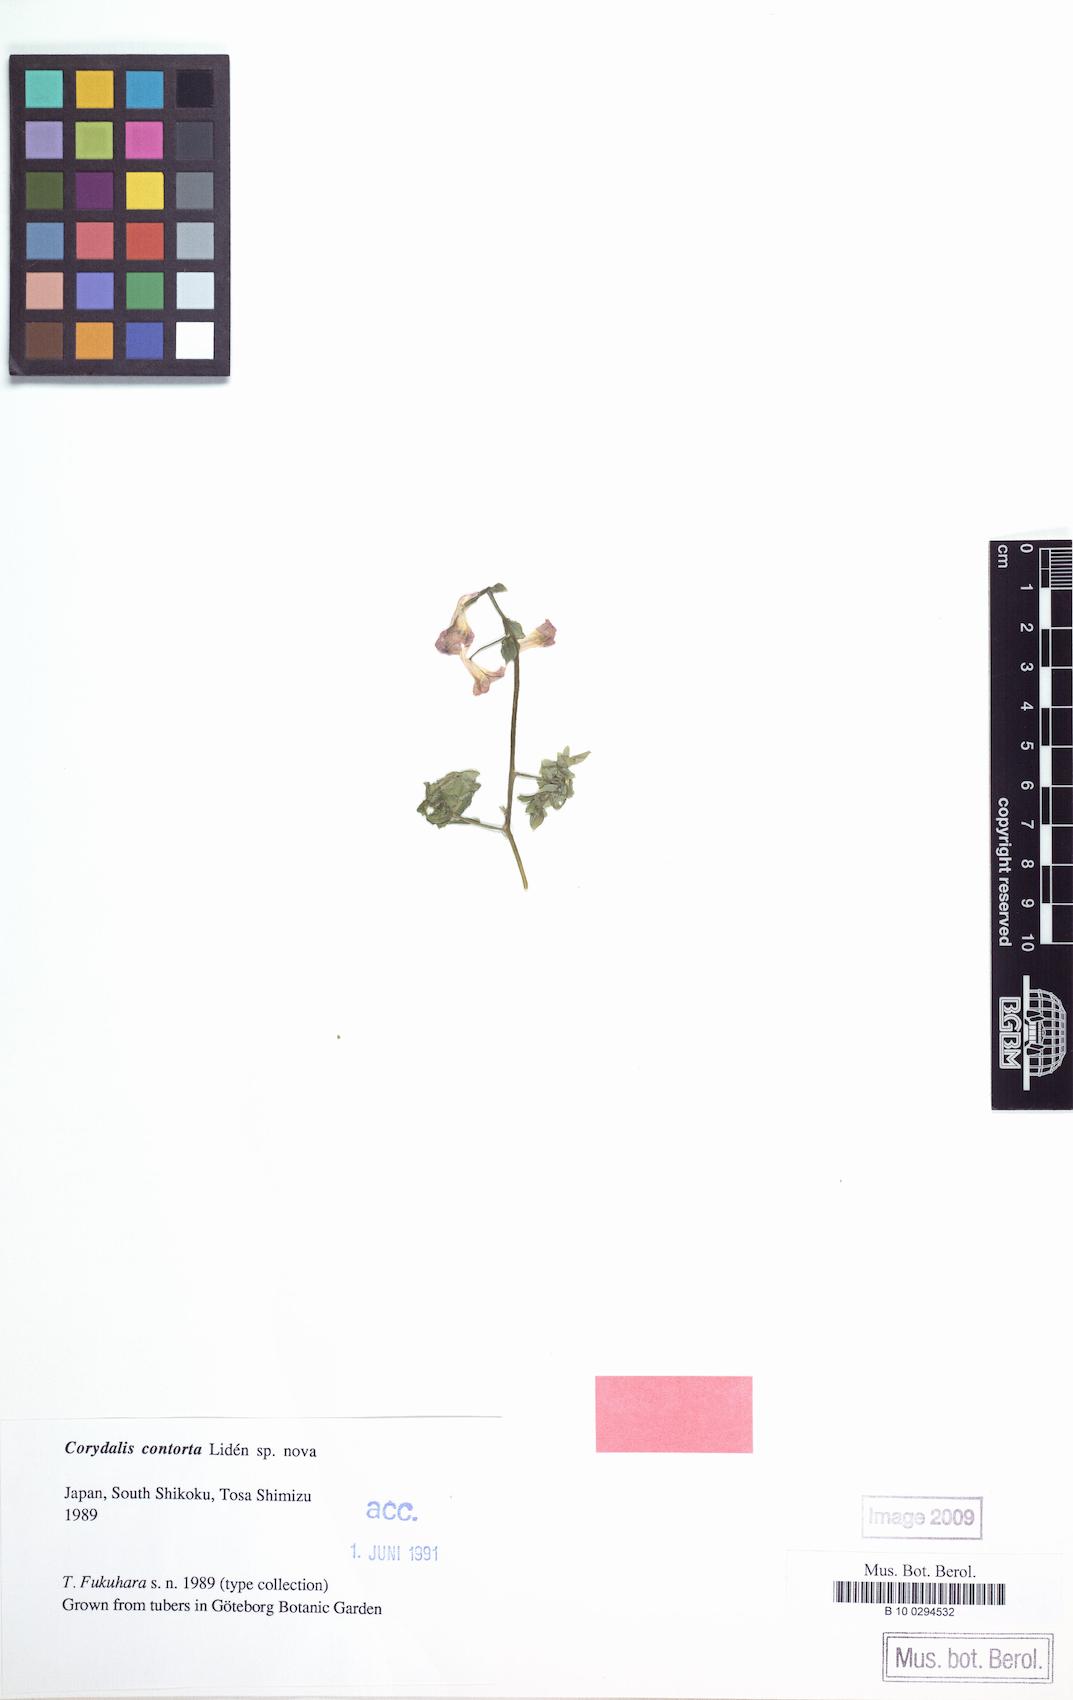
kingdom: Plantae
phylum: Tracheophyta
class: Magnoliopsida
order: Ranunculales
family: Papaveraceae
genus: Corydalis
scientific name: Corydalis
